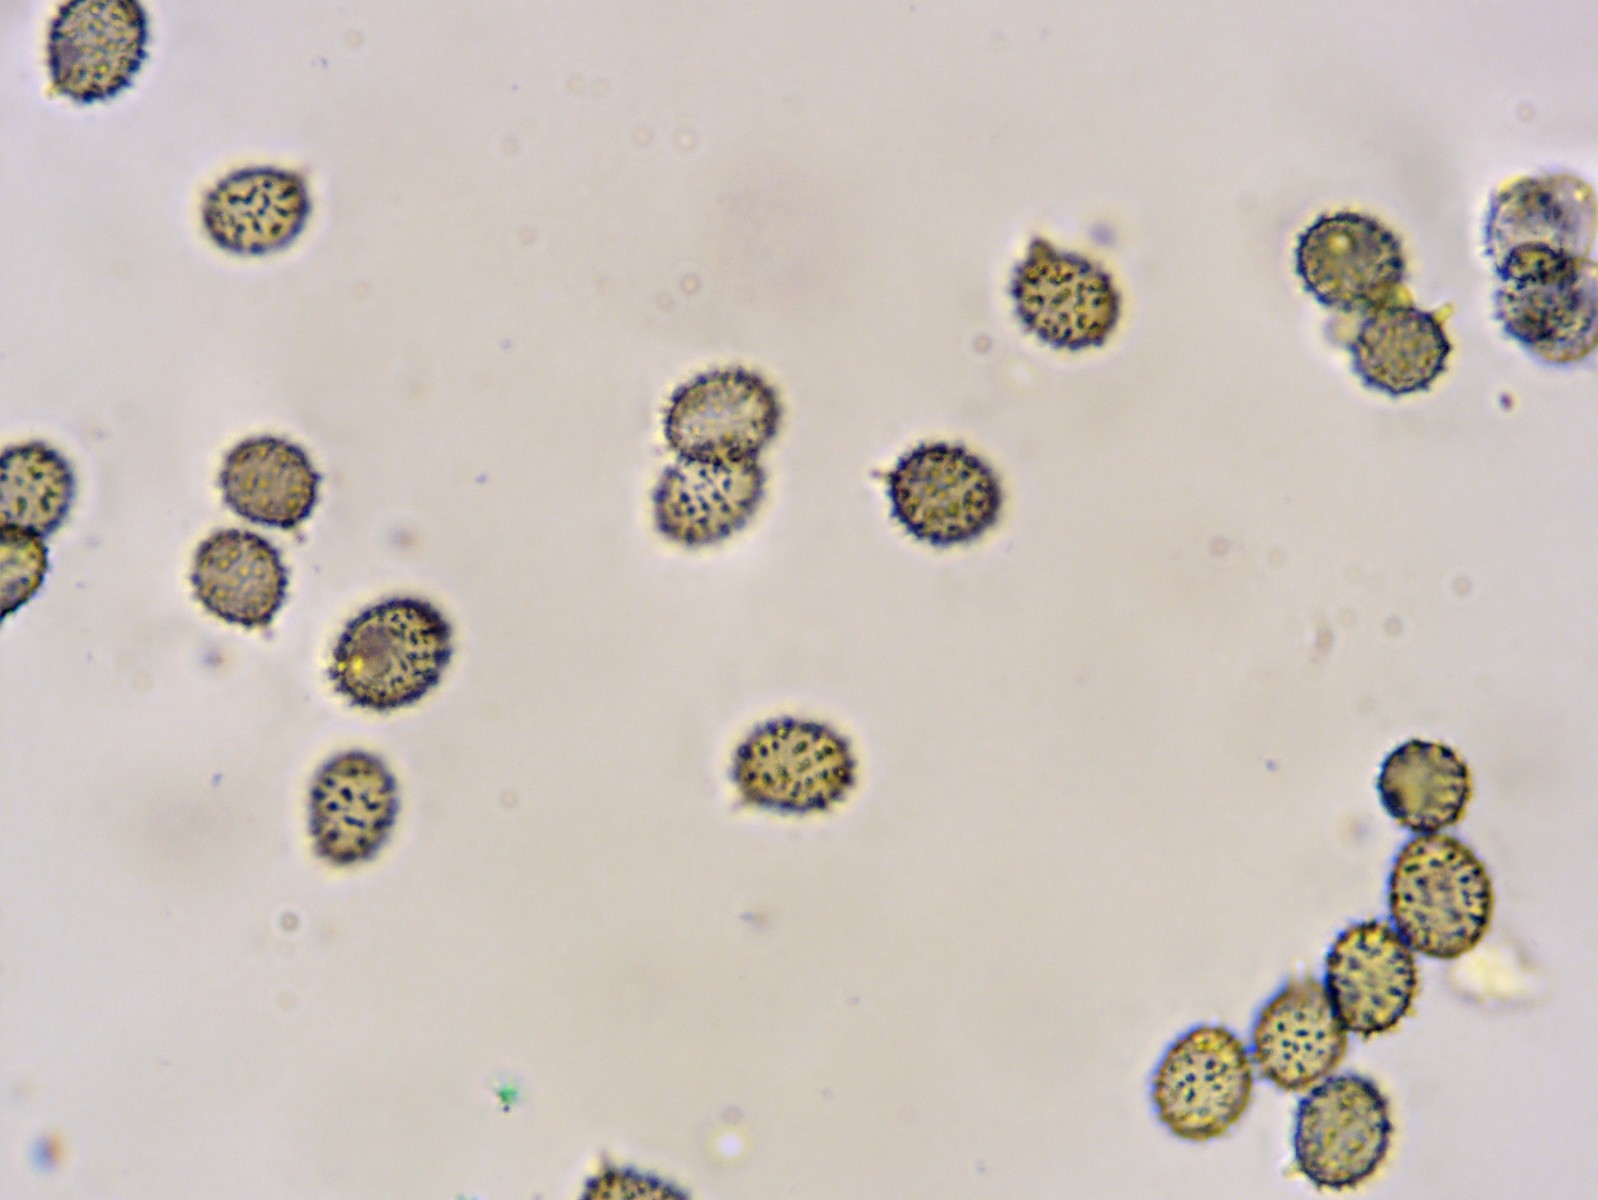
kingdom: Fungi
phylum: Basidiomycota
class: Agaricomycetes
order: Russulales
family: Russulaceae
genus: Russula
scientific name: Russula clavipes
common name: olivengrøn skørhat
